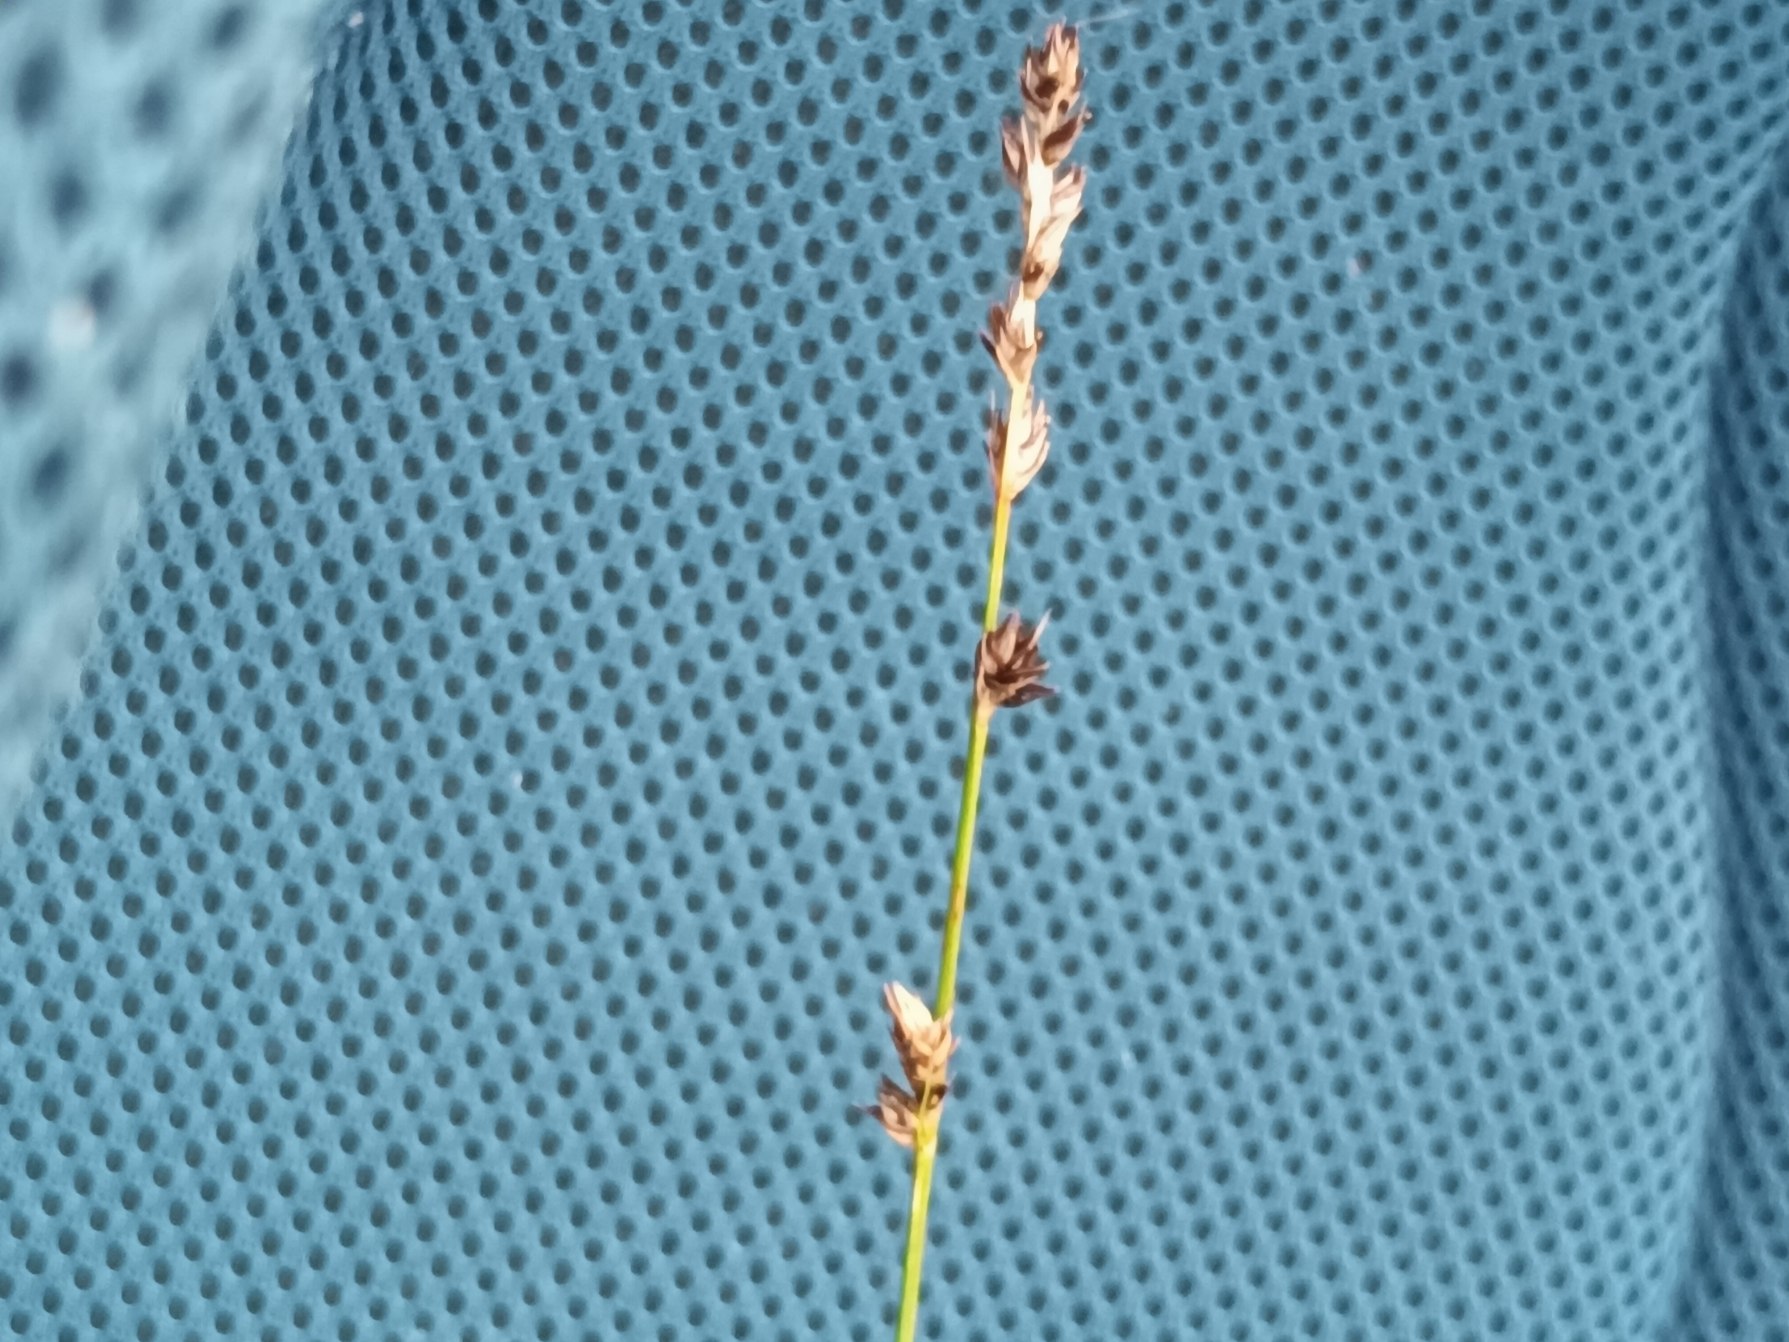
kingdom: Plantae
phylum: Tracheophyta
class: Liliopsida
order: Poales
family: Cyperaceae
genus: Carex
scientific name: Carex divulsa
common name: Mellembrudt star
